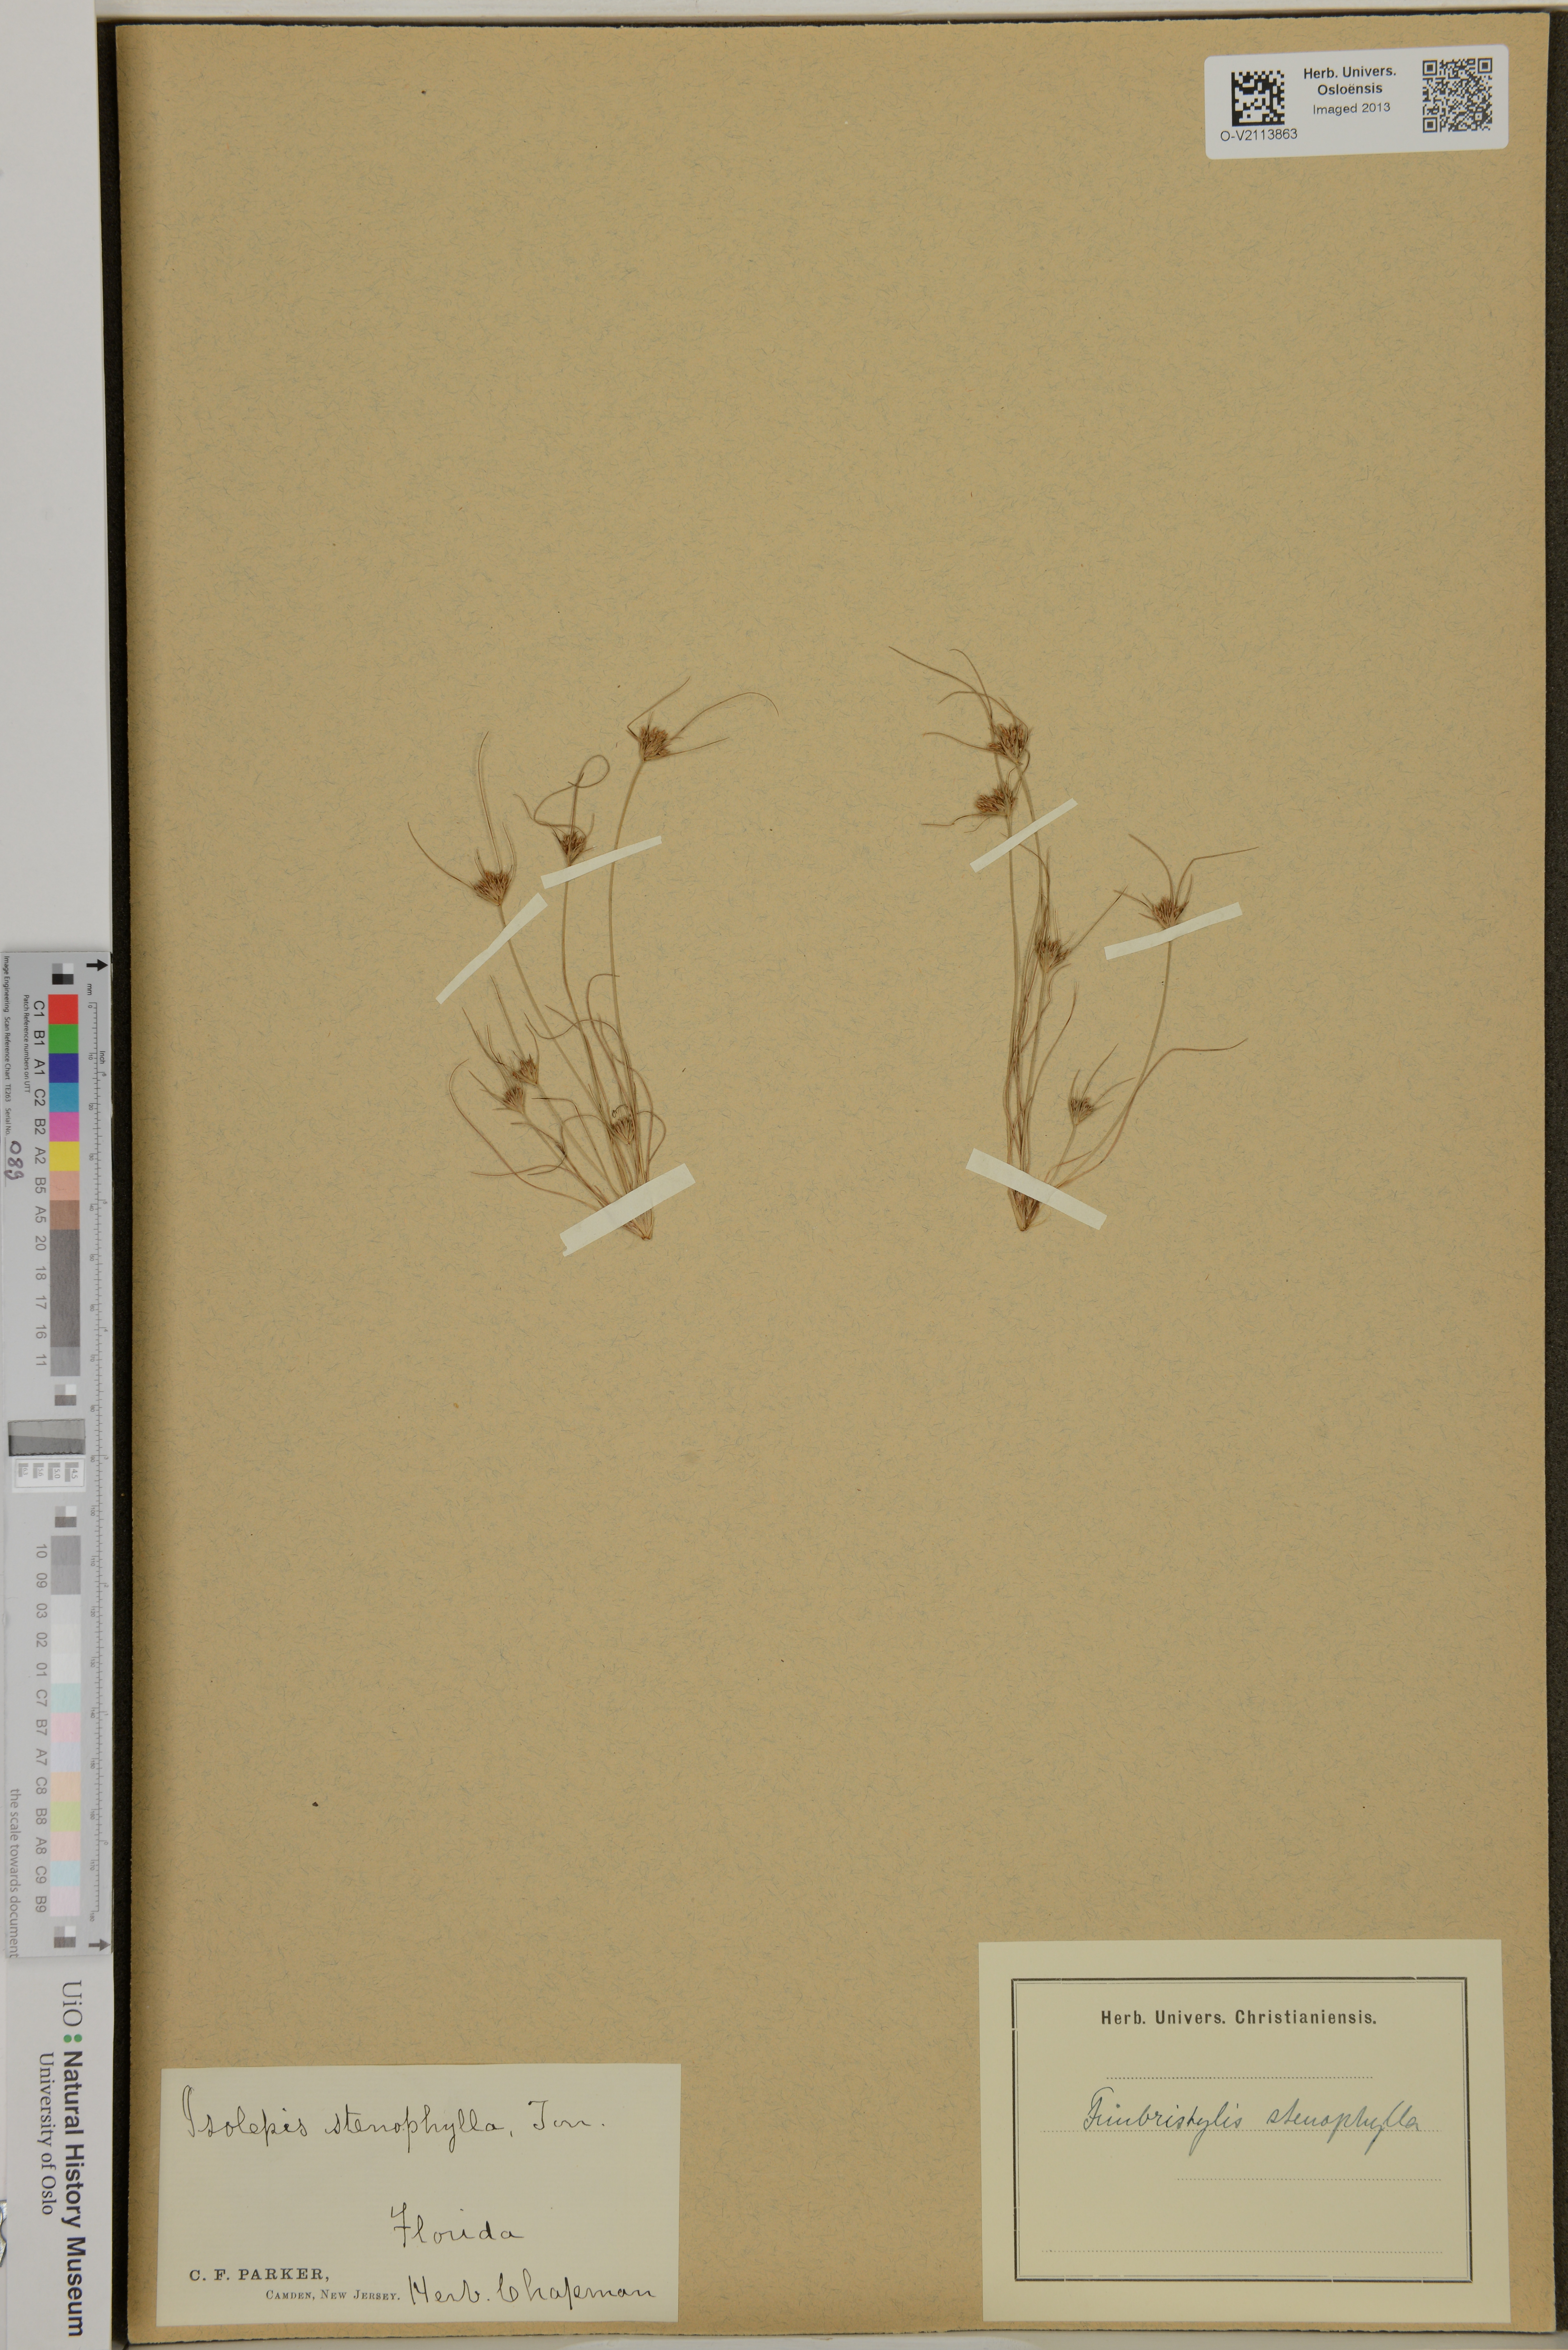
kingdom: Plantae
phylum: Tracheophyta
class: Liliopsida
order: Poales
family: Cyperaceae
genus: Bulbostylis
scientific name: Bulbostylis stenophylla
